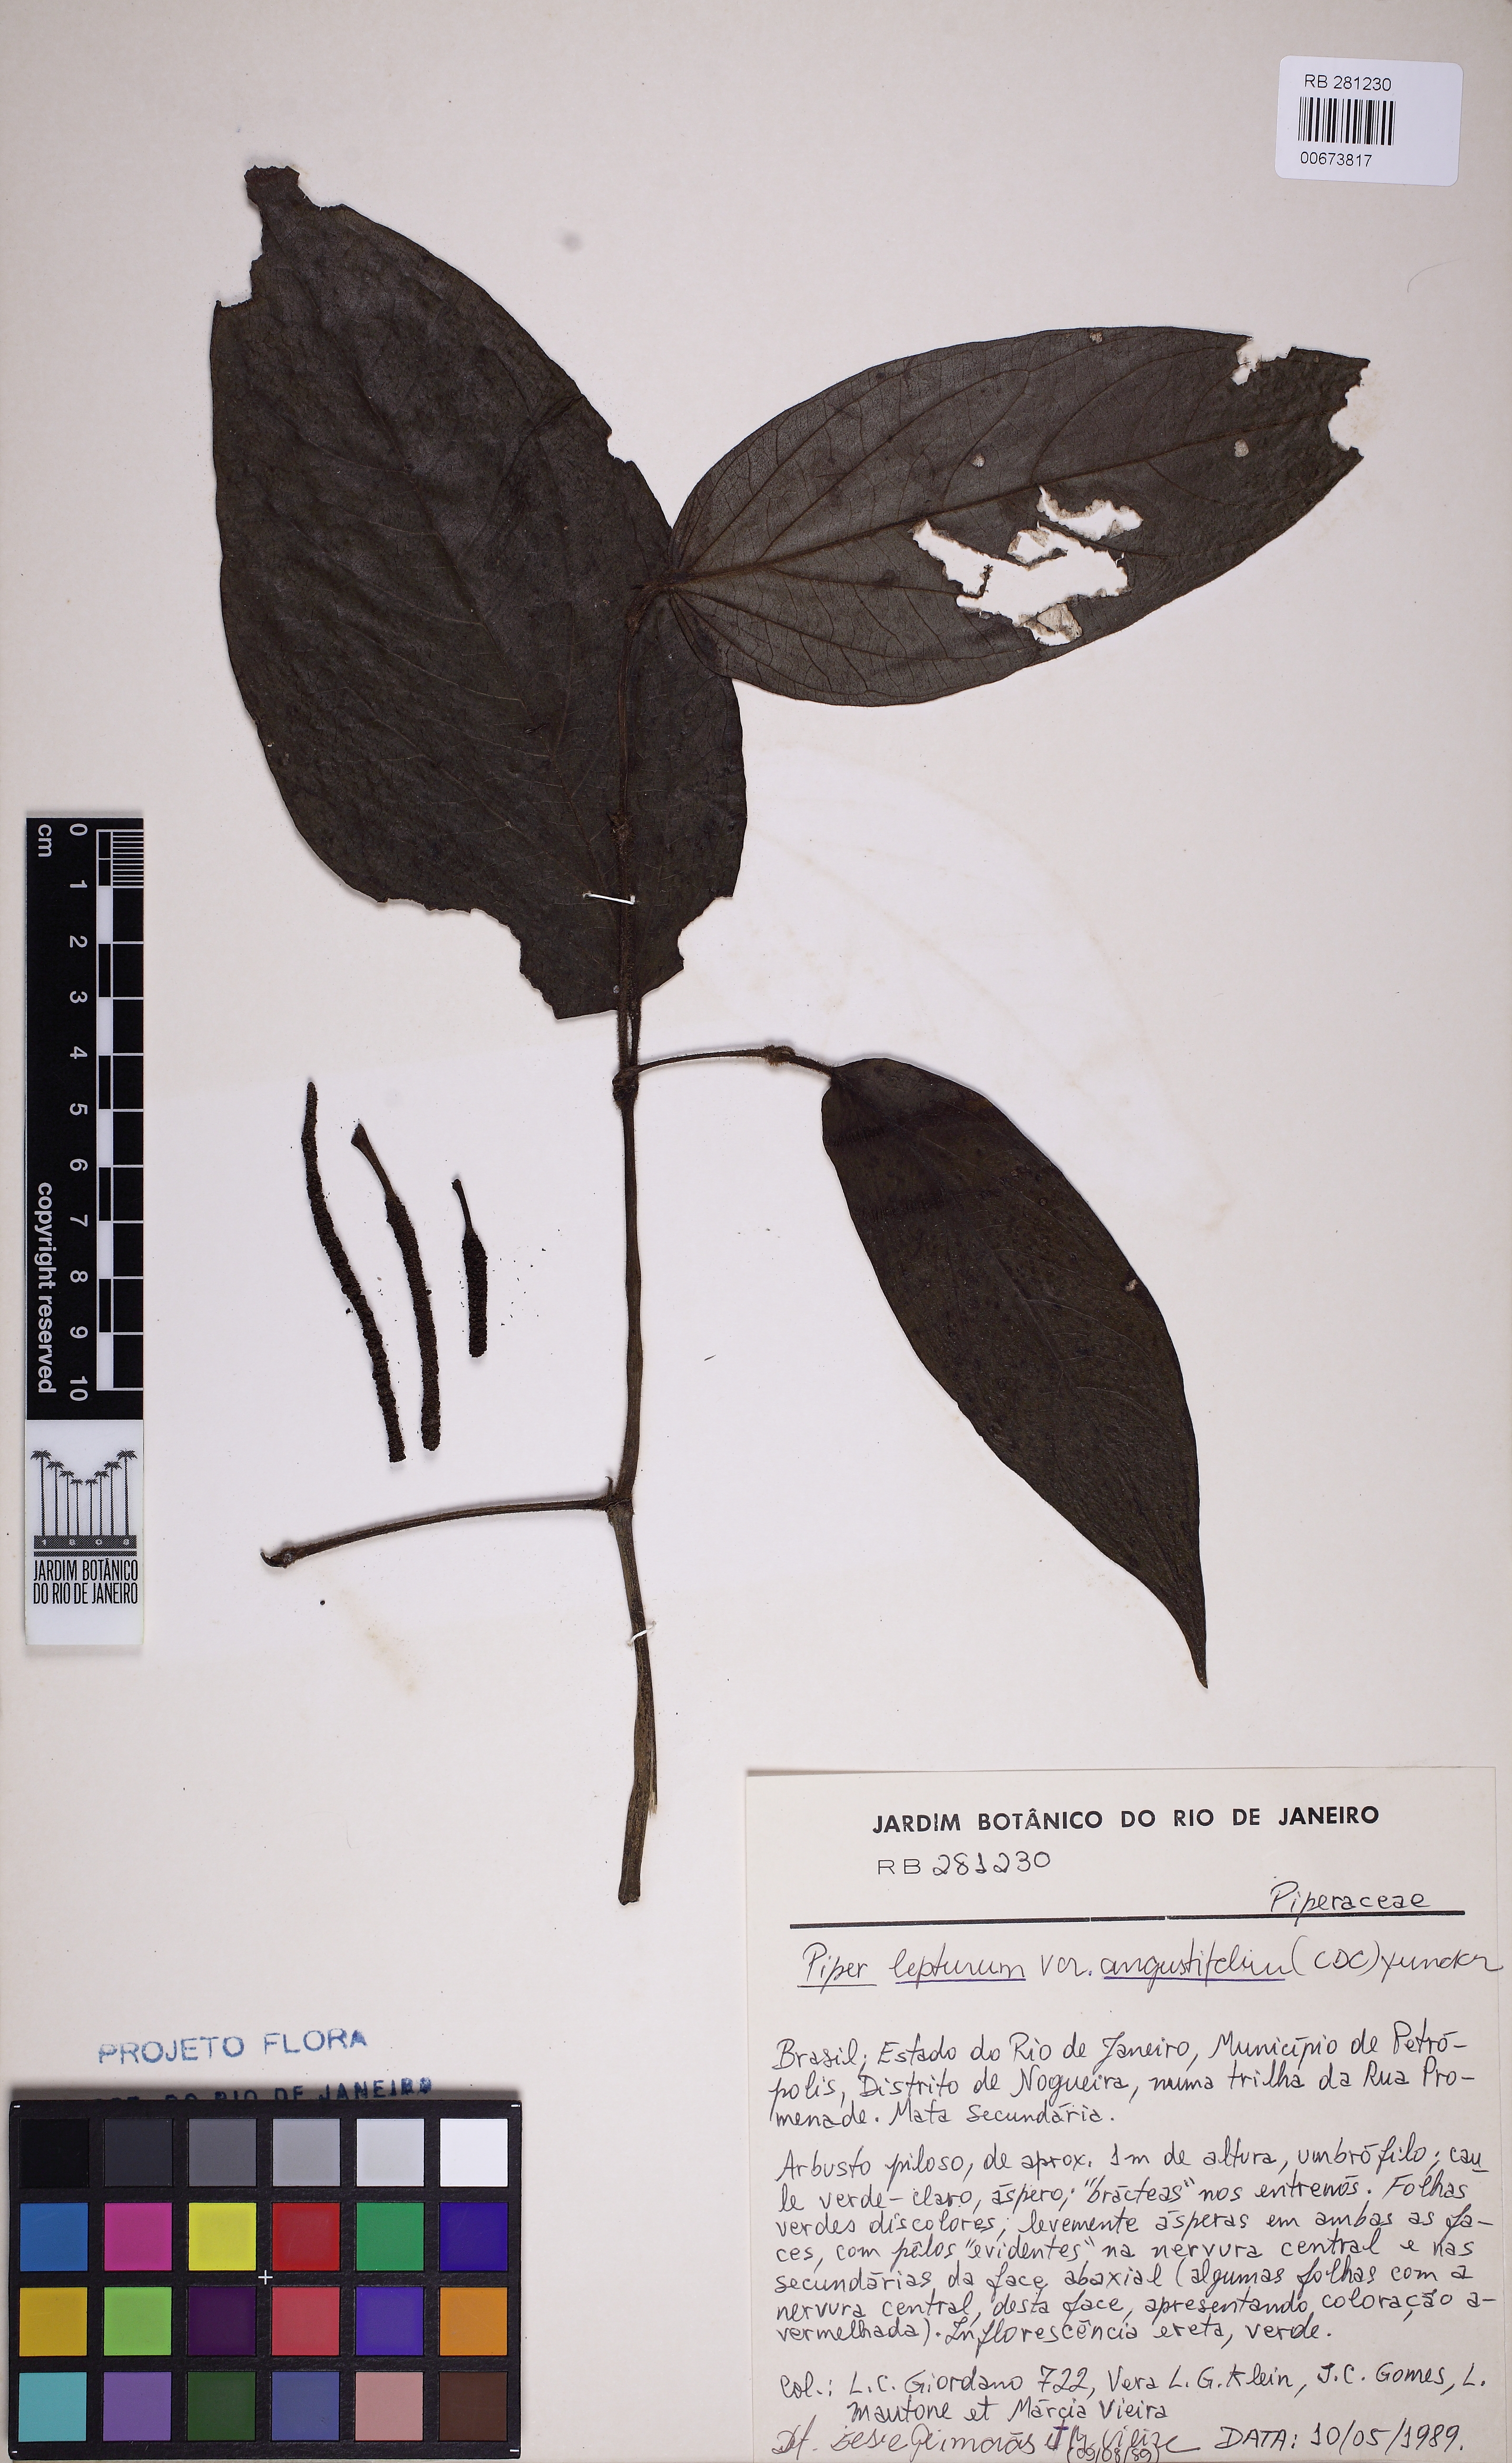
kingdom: Plantae
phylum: Tracheophyta
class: Magnoliopsida
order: Piperales
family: Piperaceae
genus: Piper
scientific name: Piper lepturum
